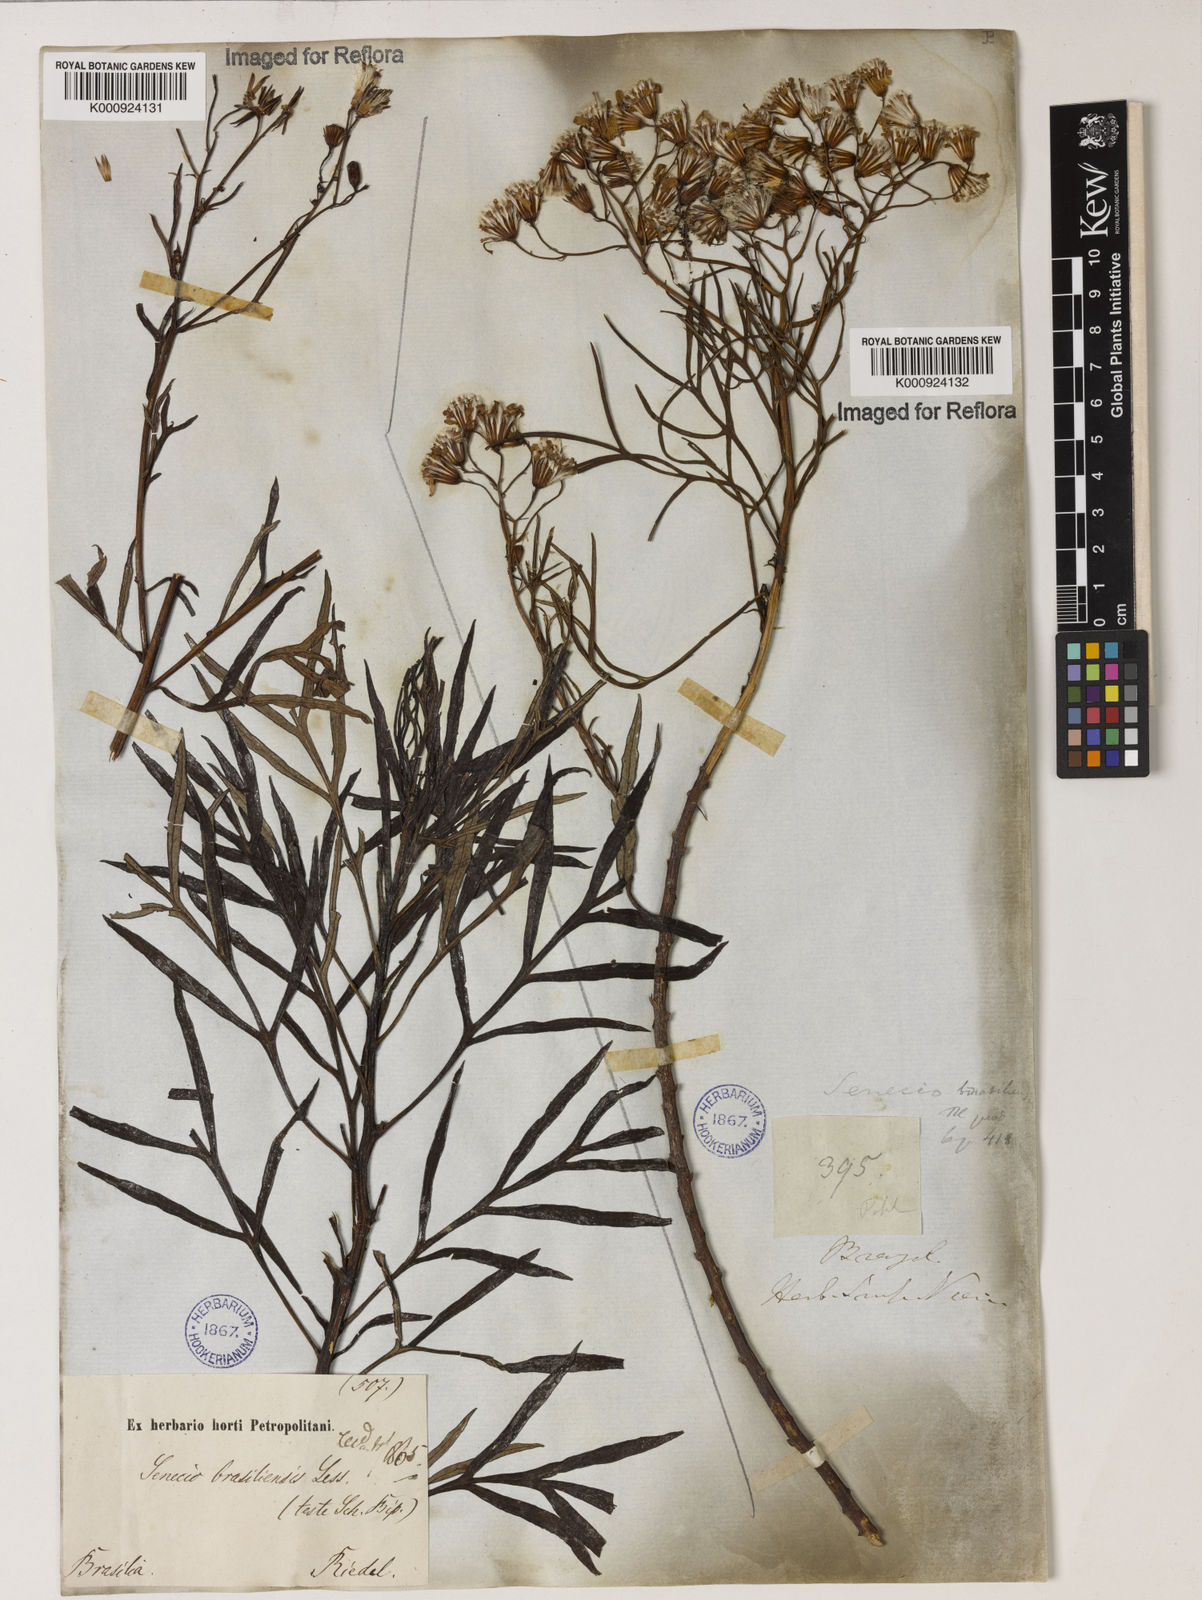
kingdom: Plantae
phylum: Tracheophyta
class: Magnoliopsida
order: Asterales
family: Asteraceae
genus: Senecio
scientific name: Senecio brasiliensis
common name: Hemp-leaf ragwort
